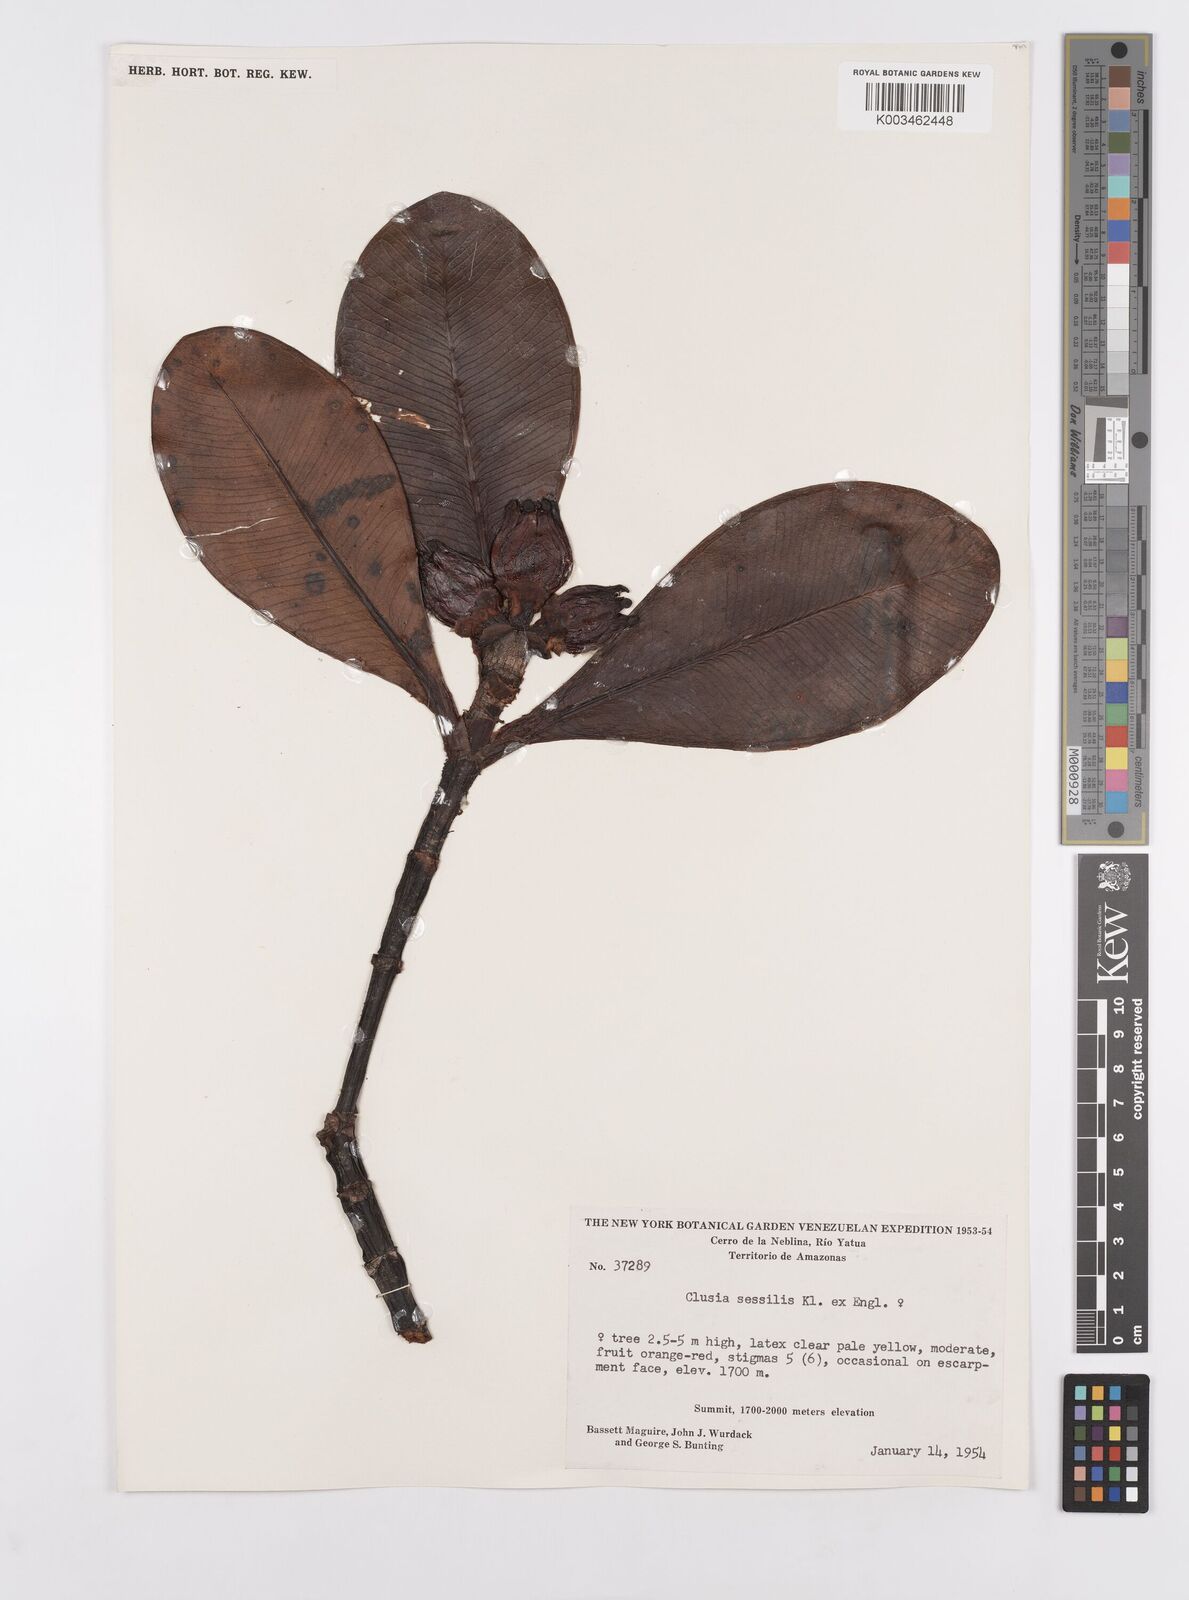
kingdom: Plantae
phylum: Tracheophyta
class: Magnoliopsida
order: Malpighiales
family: Clusiaceae
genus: Garcinia
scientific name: Garcinia sessilis
